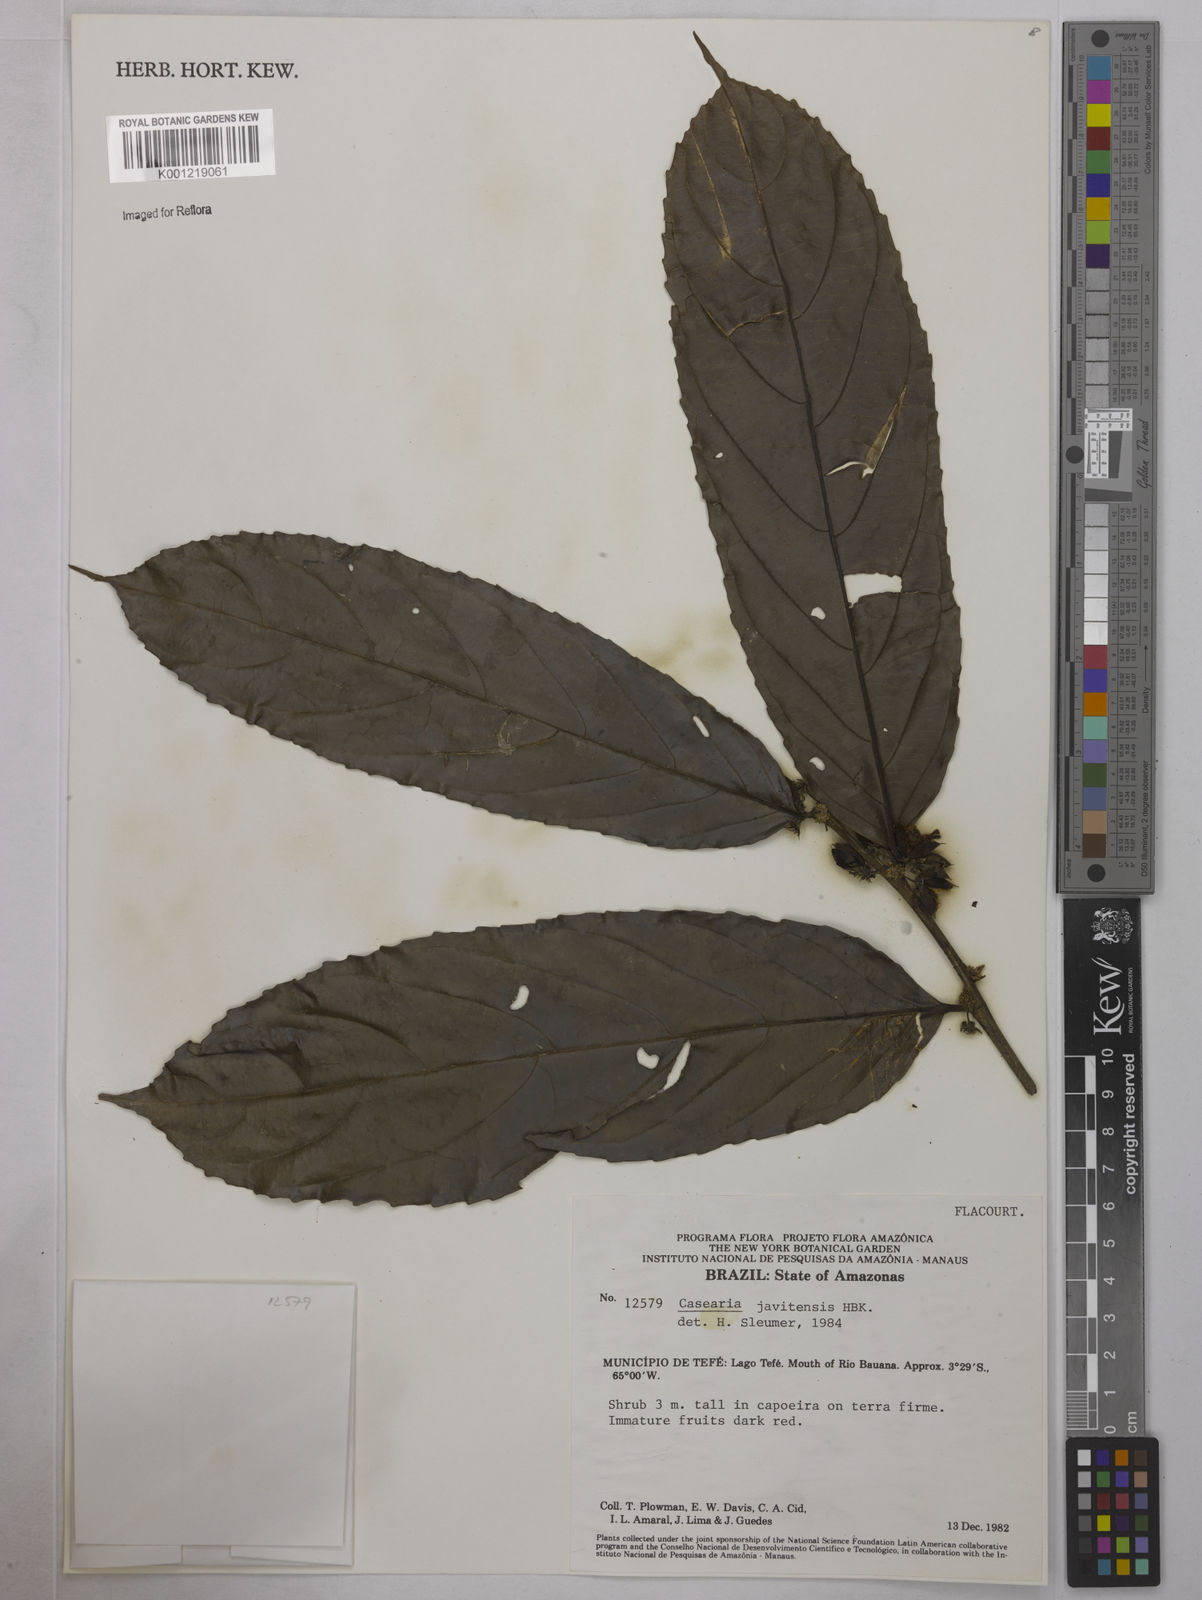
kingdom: Plantae
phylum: Tracheophyta
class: Magnoliopsida
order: Malpighiales
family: Salicaceae
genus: Piparea
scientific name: Piparea multiflora
